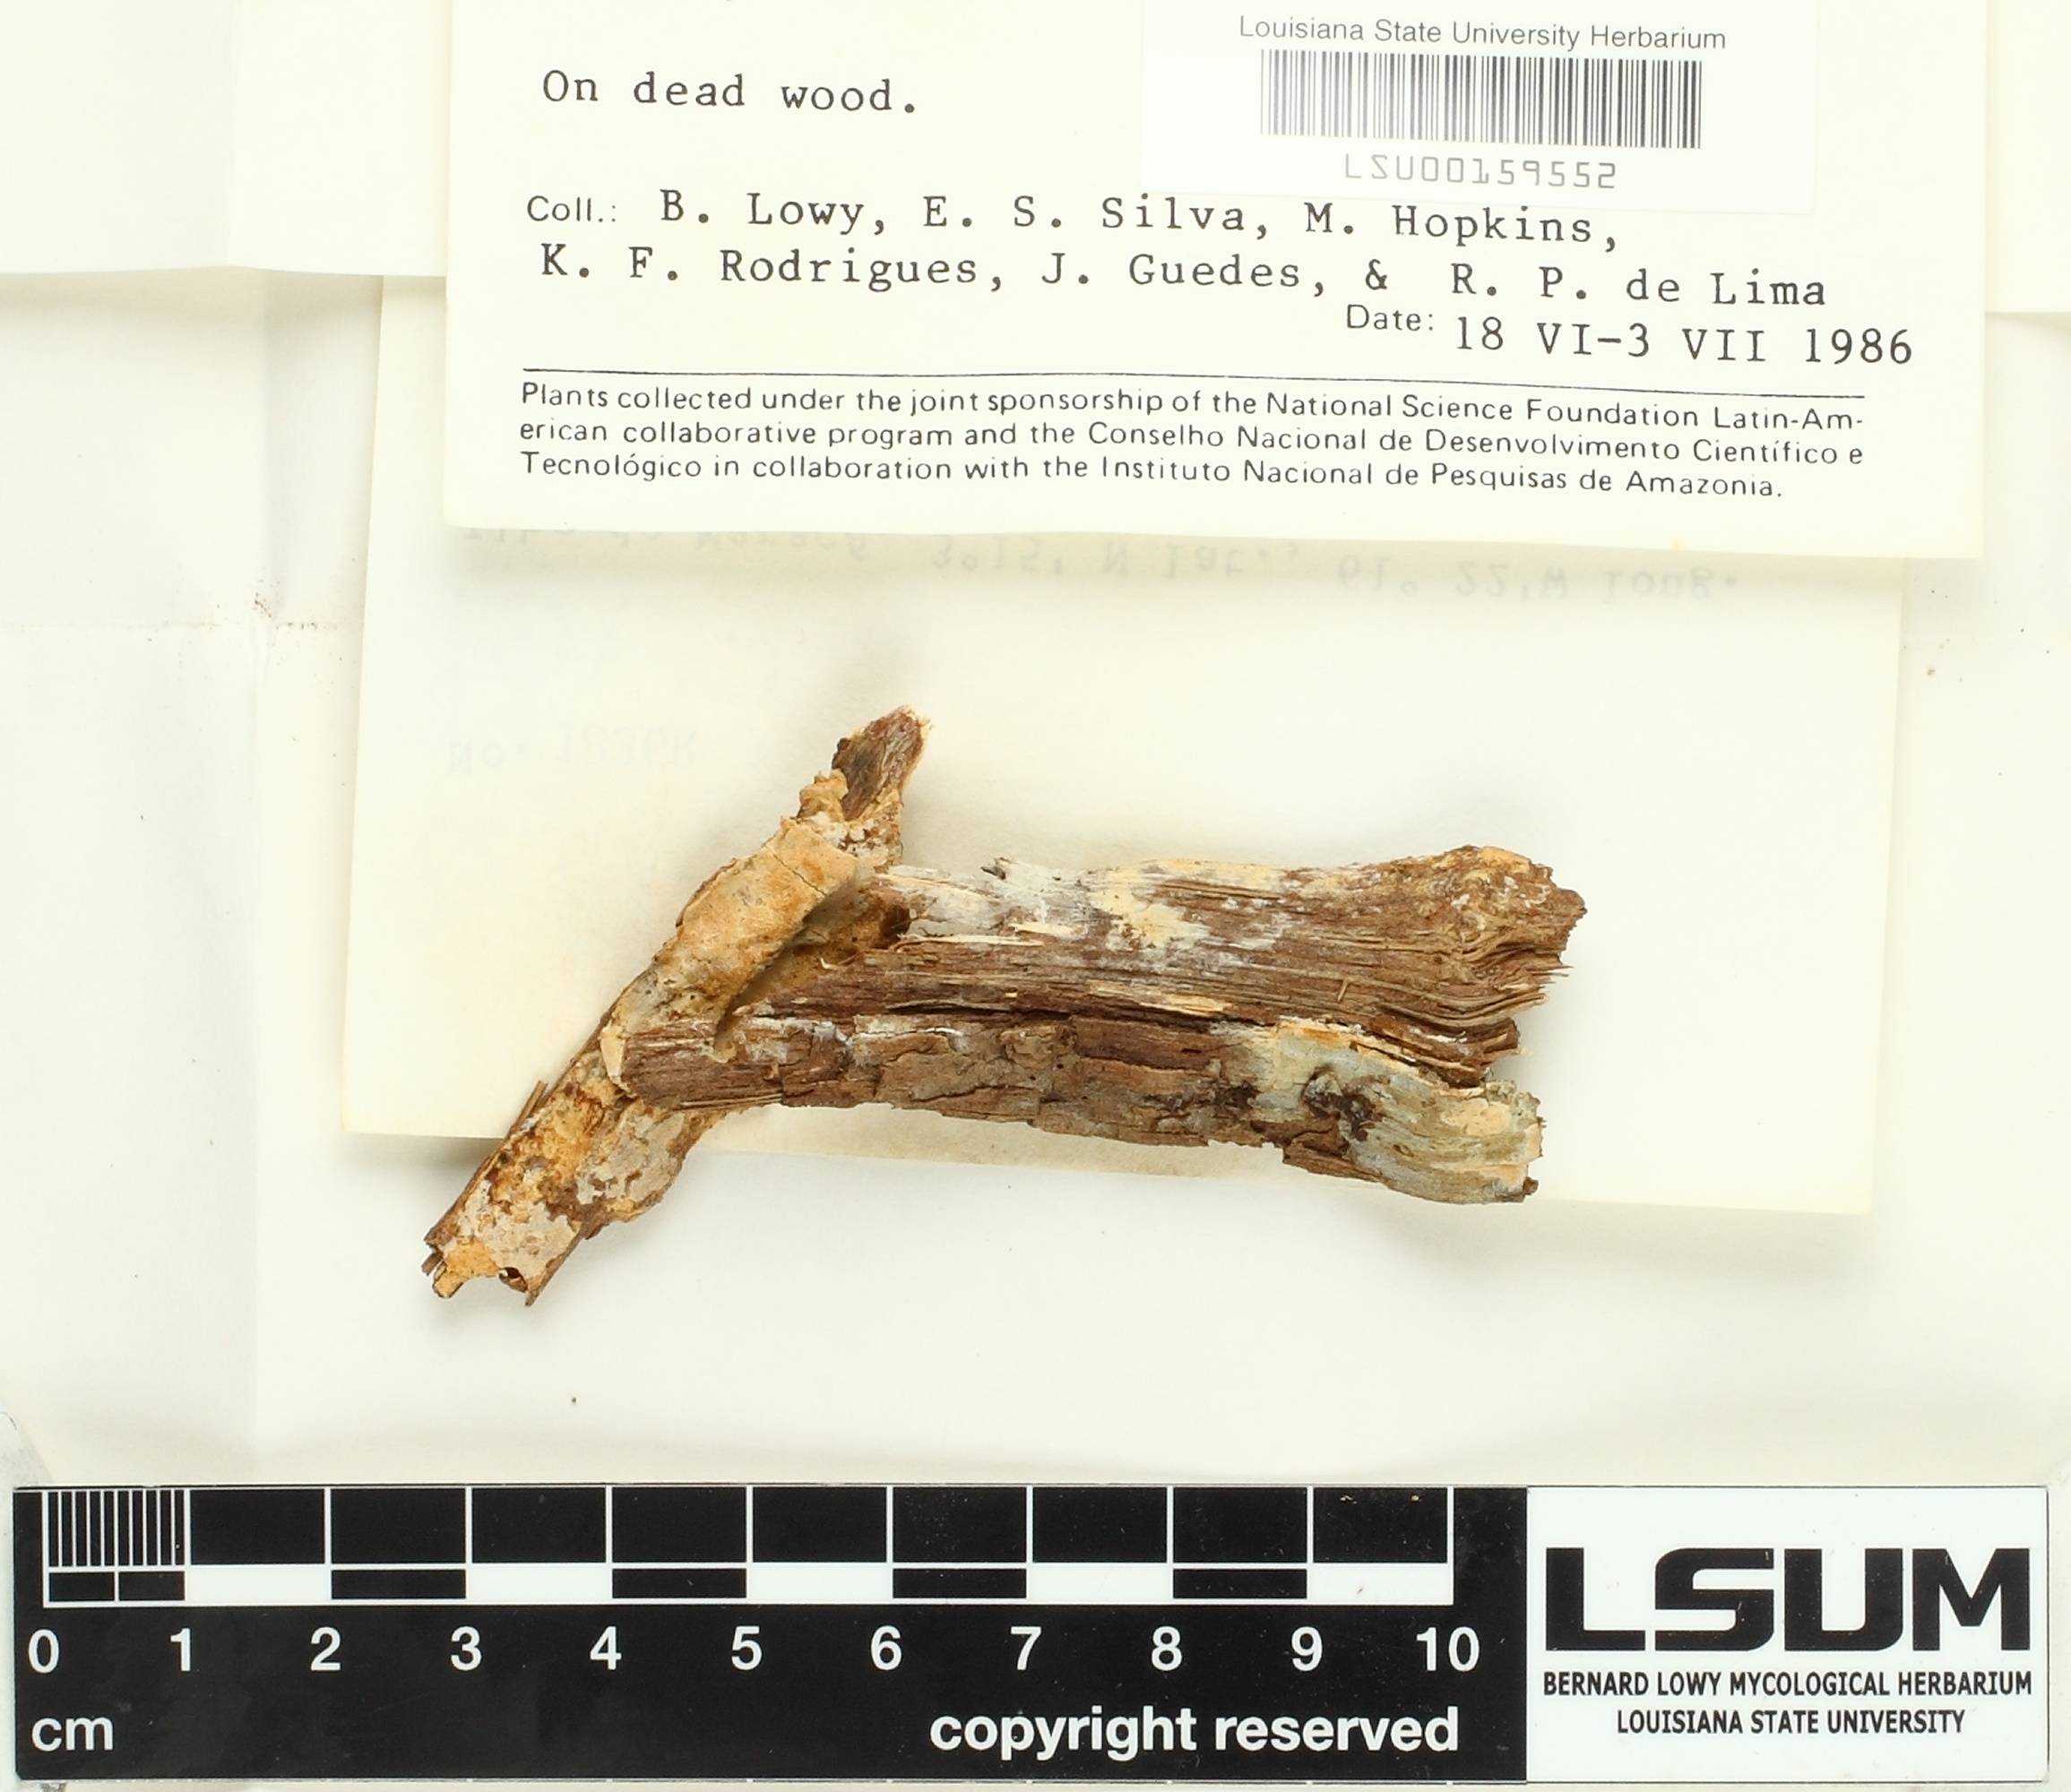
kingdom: Fungi
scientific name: Fungi
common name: Fungi
